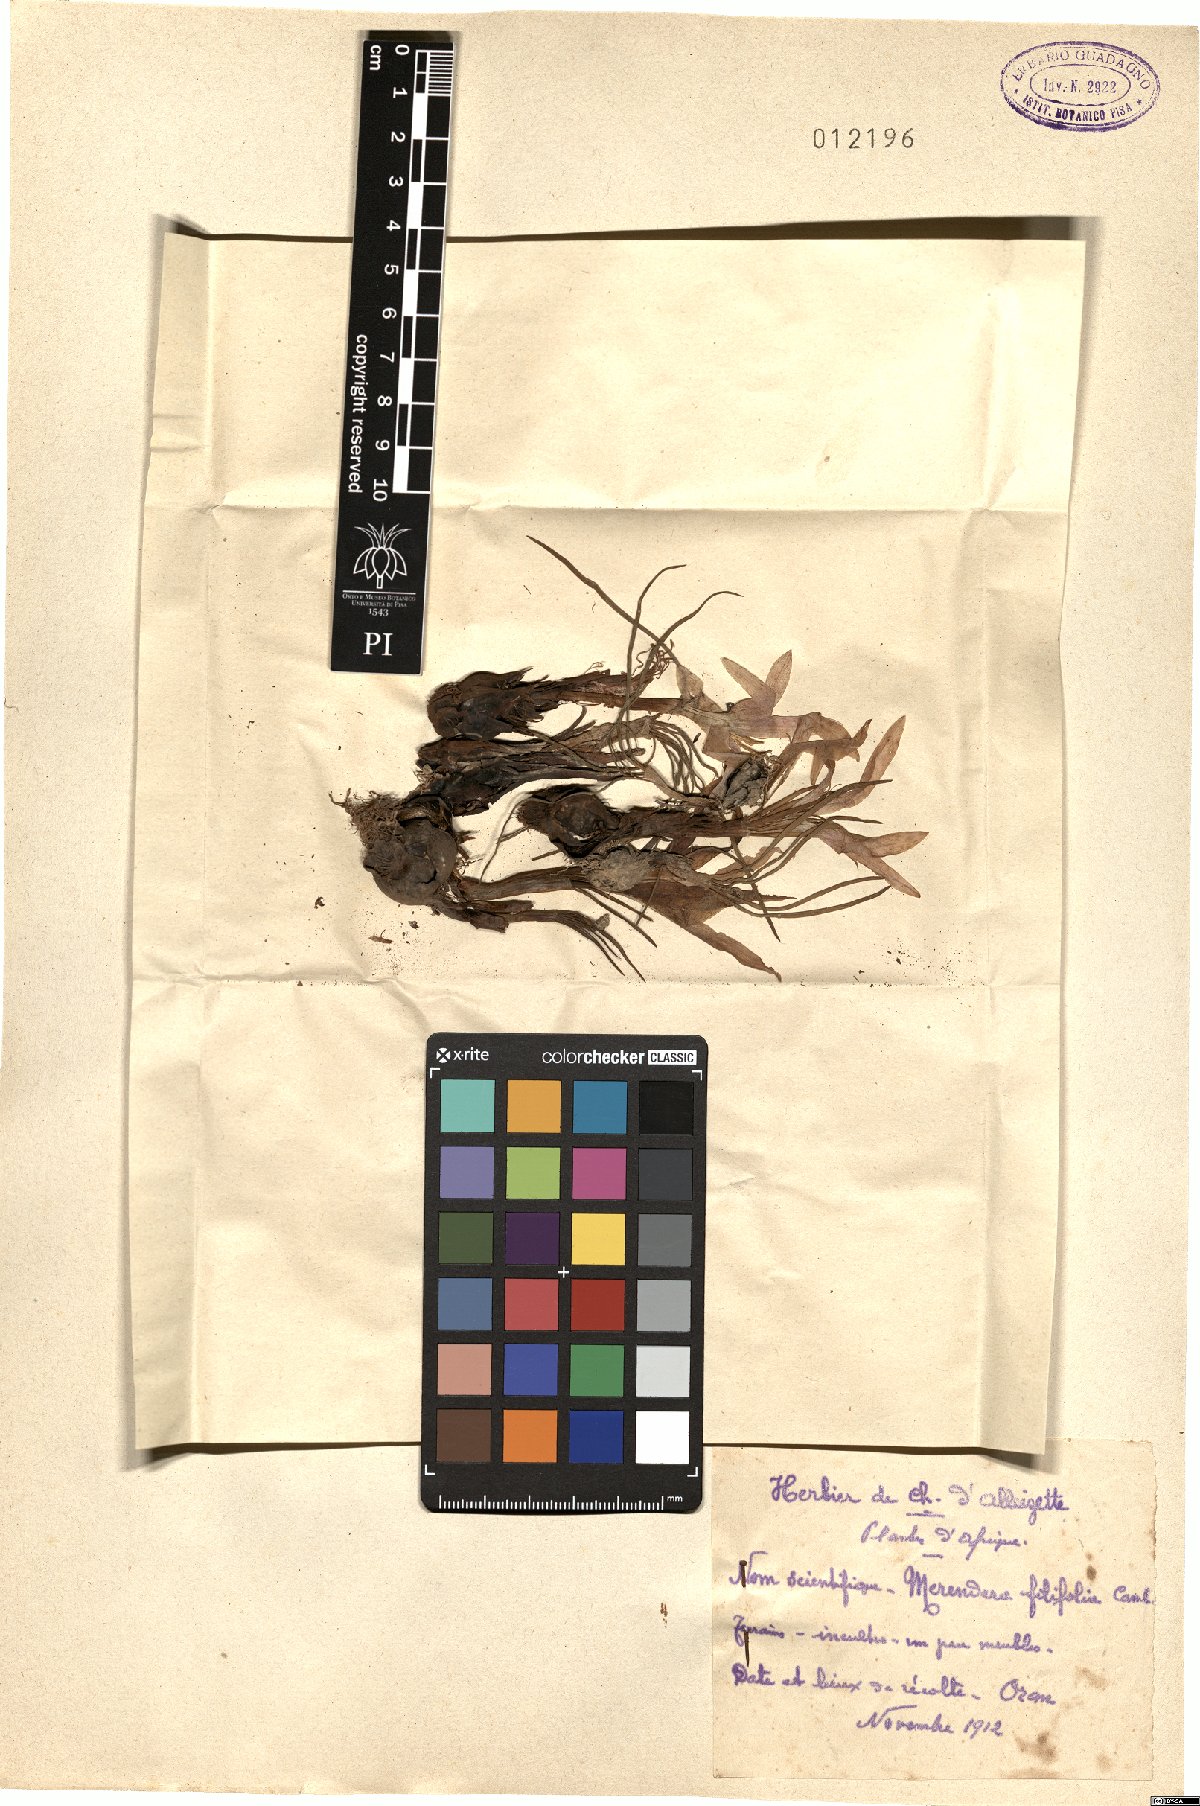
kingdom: Plantae
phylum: Tracheophyta
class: Liliopsida
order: Liliales
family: Colchicaceae
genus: Colchicum
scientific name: Colchicum filifolium
